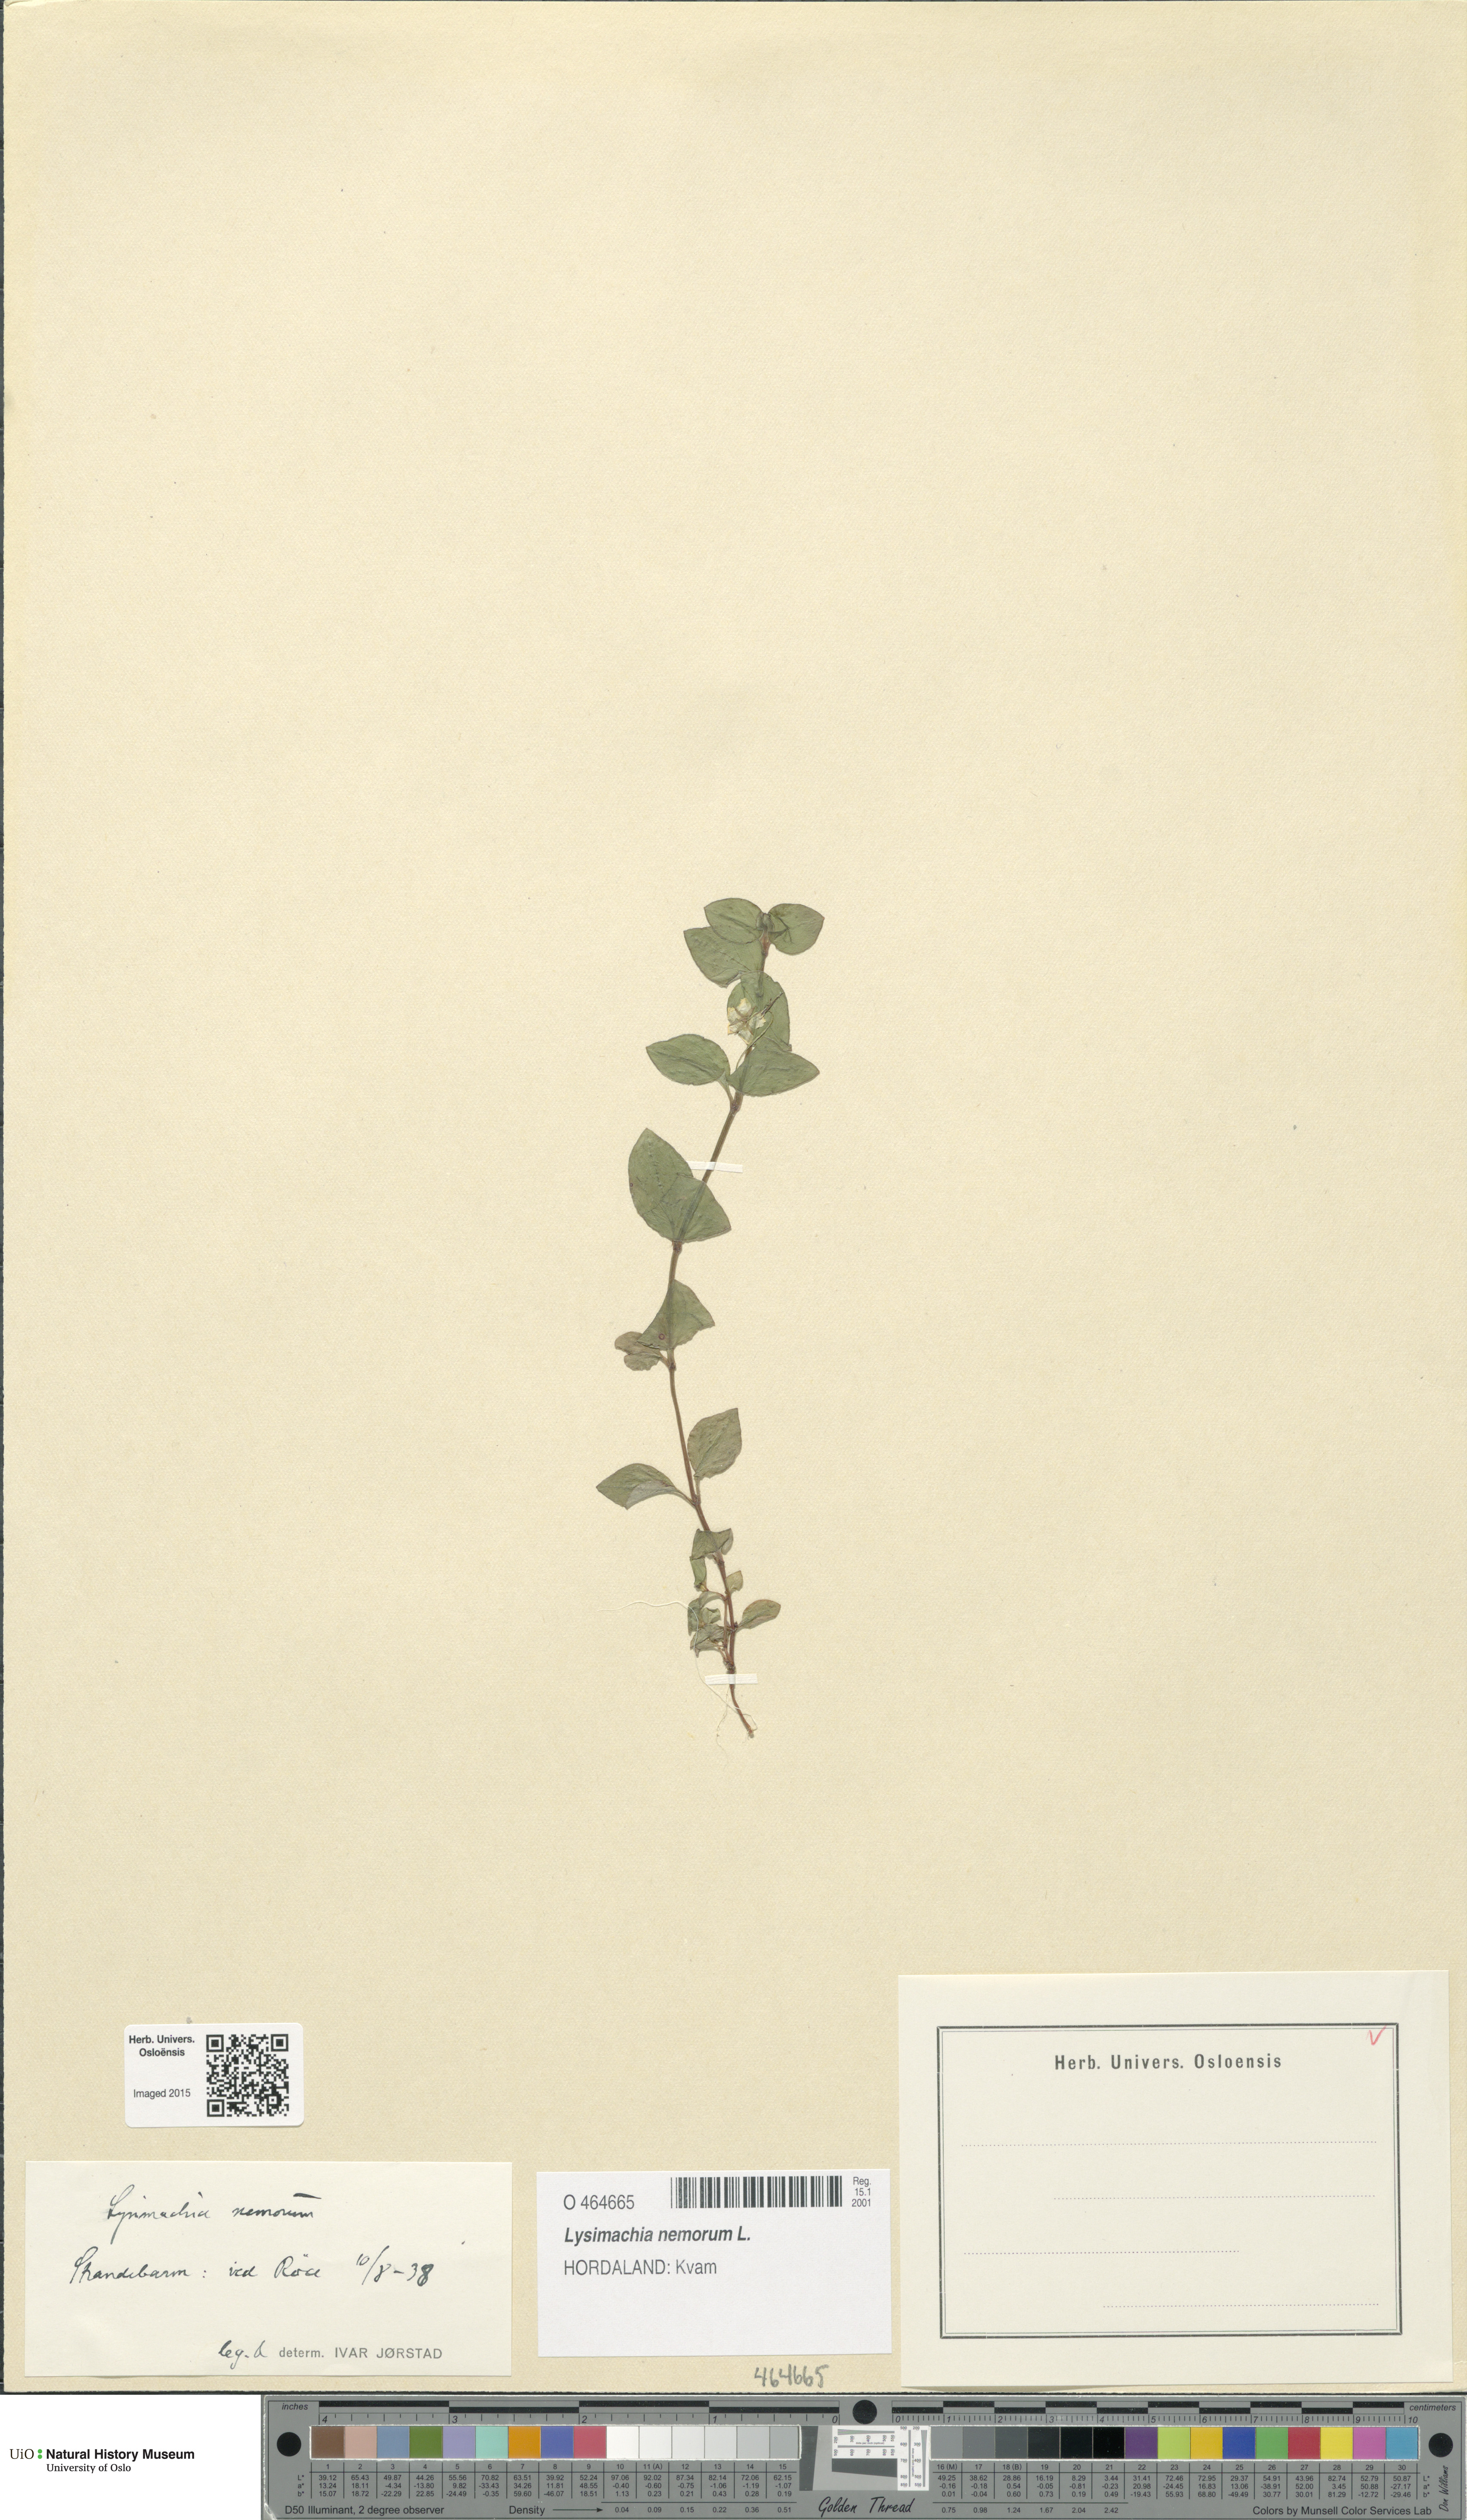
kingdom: Plantae
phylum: Tracheophyta
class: Magnoliopsida
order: Ericales
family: Primulaceae
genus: Lysimachia
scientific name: Lysimachia nemorum
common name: Yellow pimpernel
